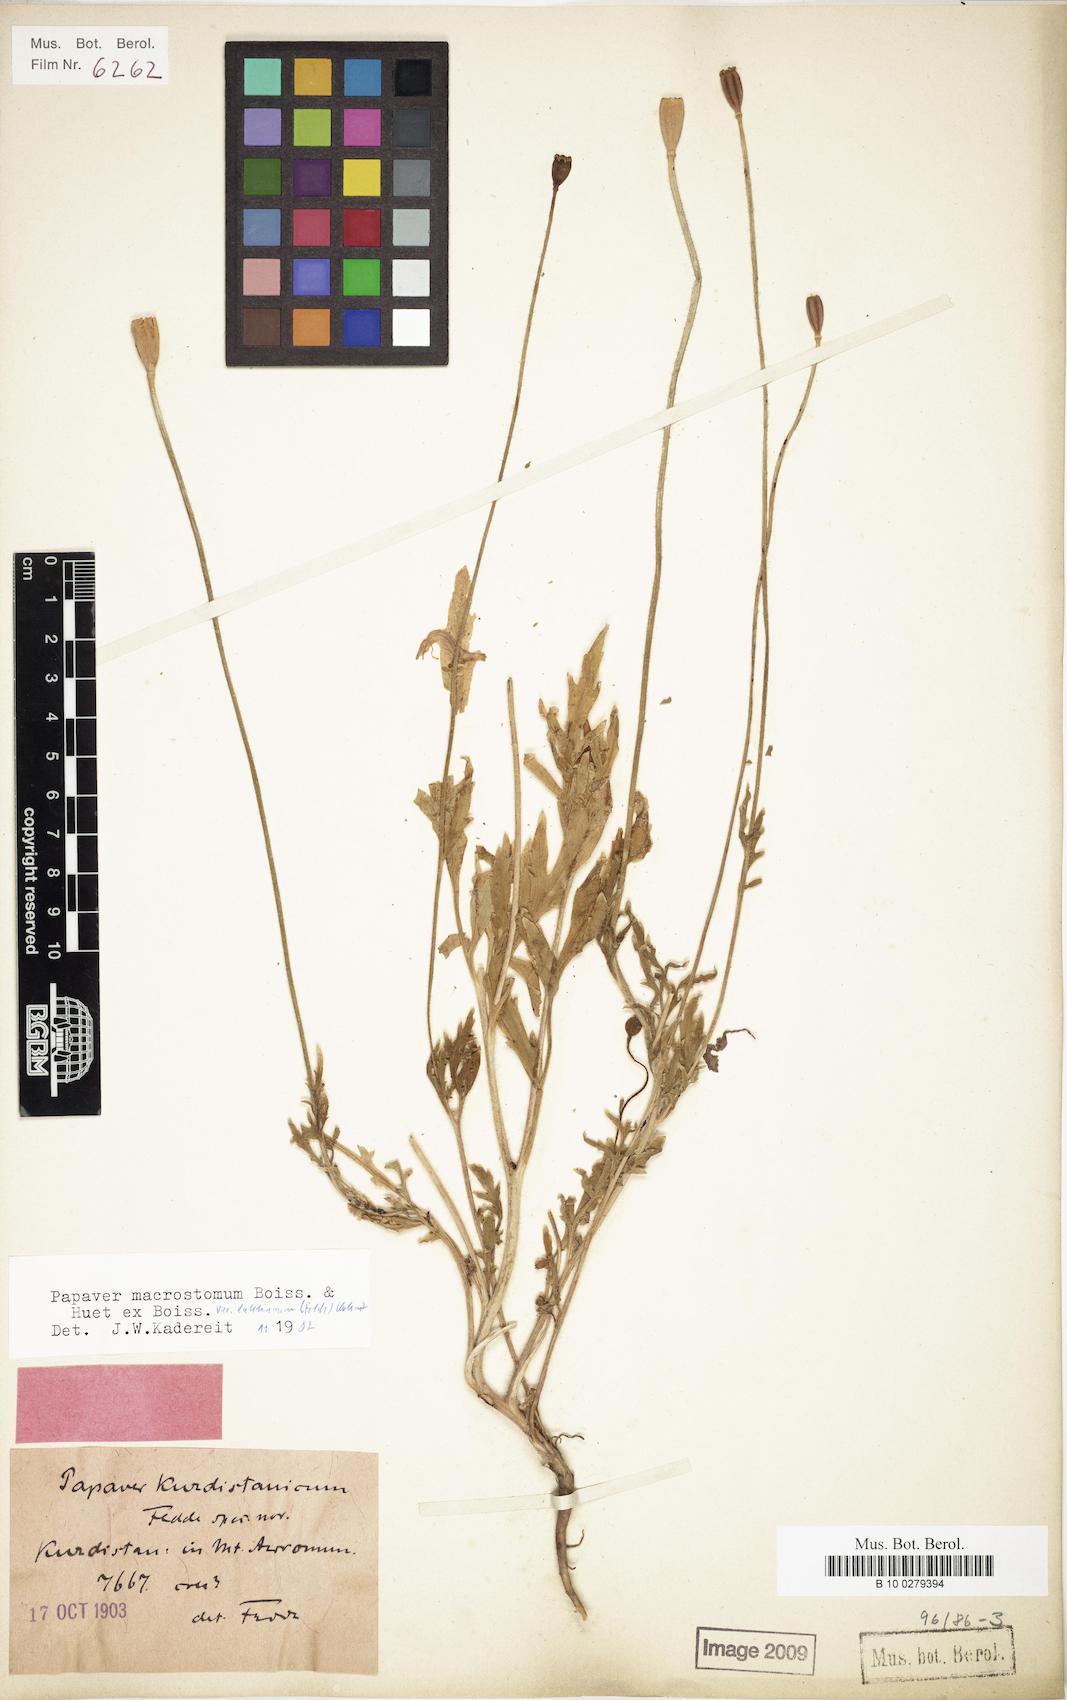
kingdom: Plantae
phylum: Tracheophyta
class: Magnoliopsida
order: Ranunculales
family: Papaveraceae
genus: Papaver
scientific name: Papaver macrostomum
